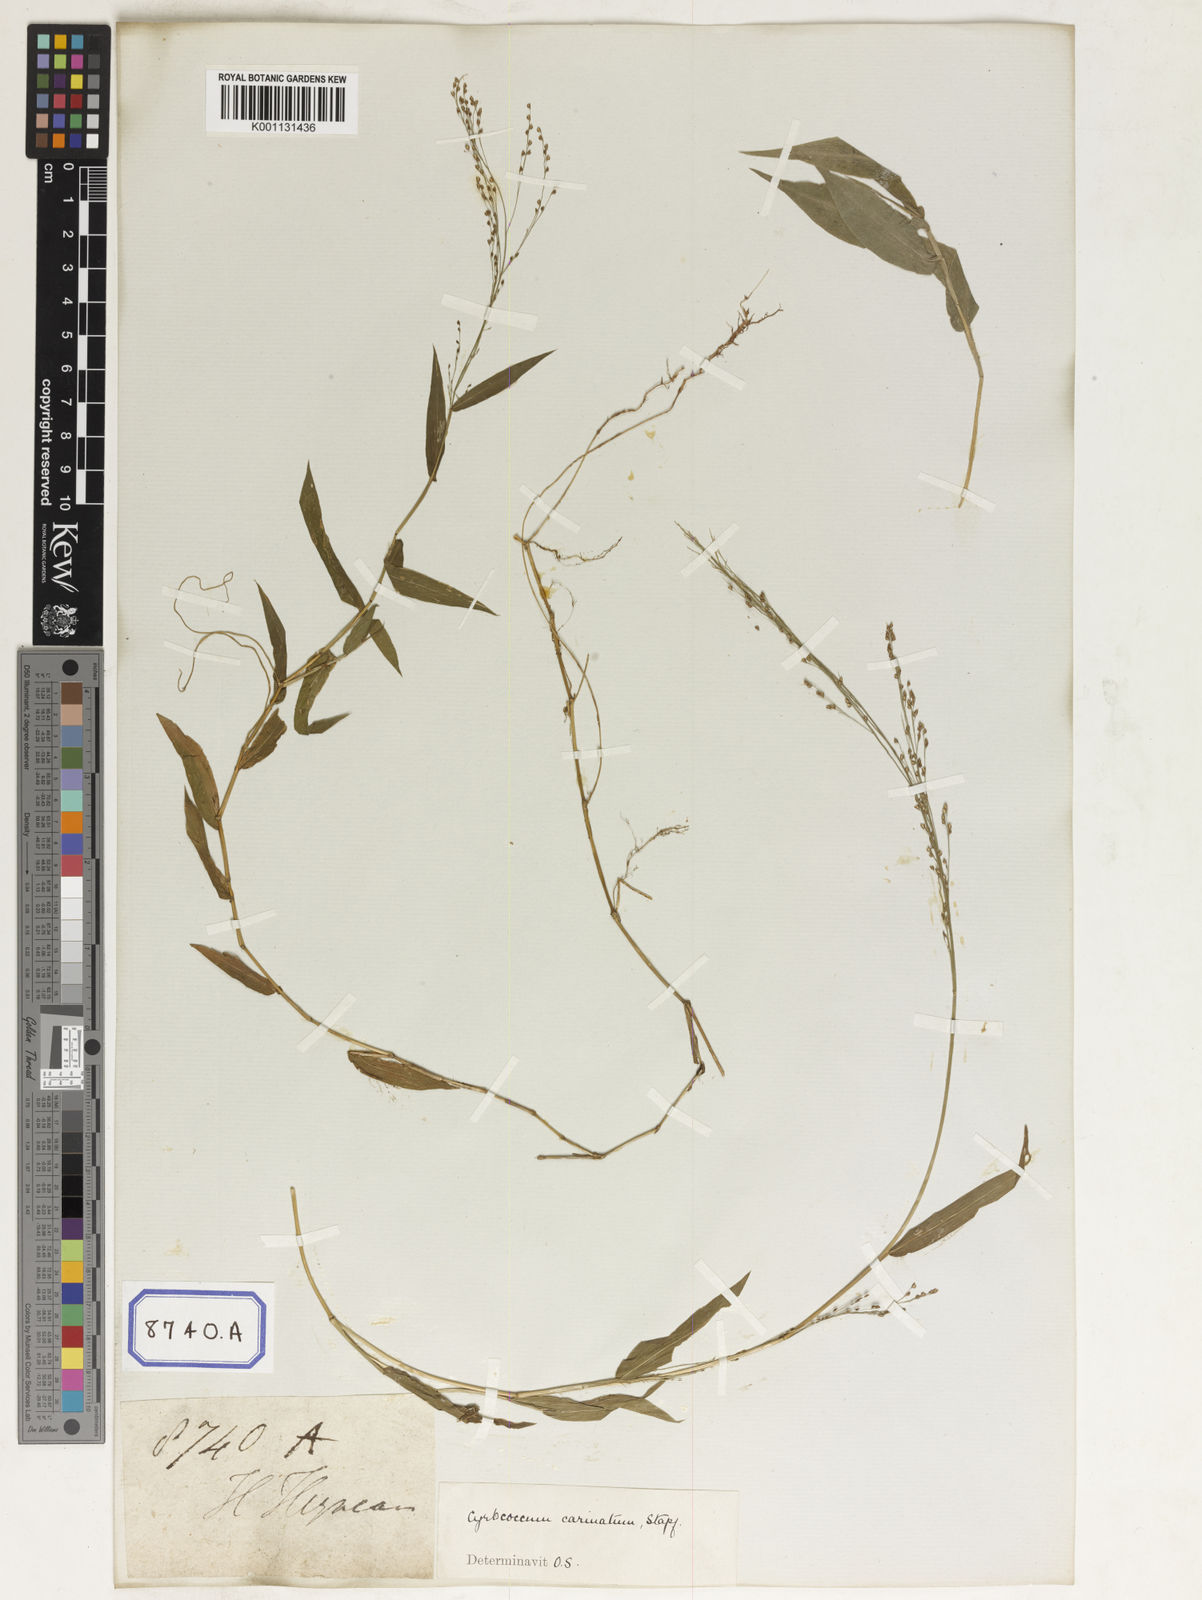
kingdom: Plantae
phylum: Tracheophyta
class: Liliopsida
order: Poales
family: Poaceae
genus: Panicum
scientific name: Panicum
